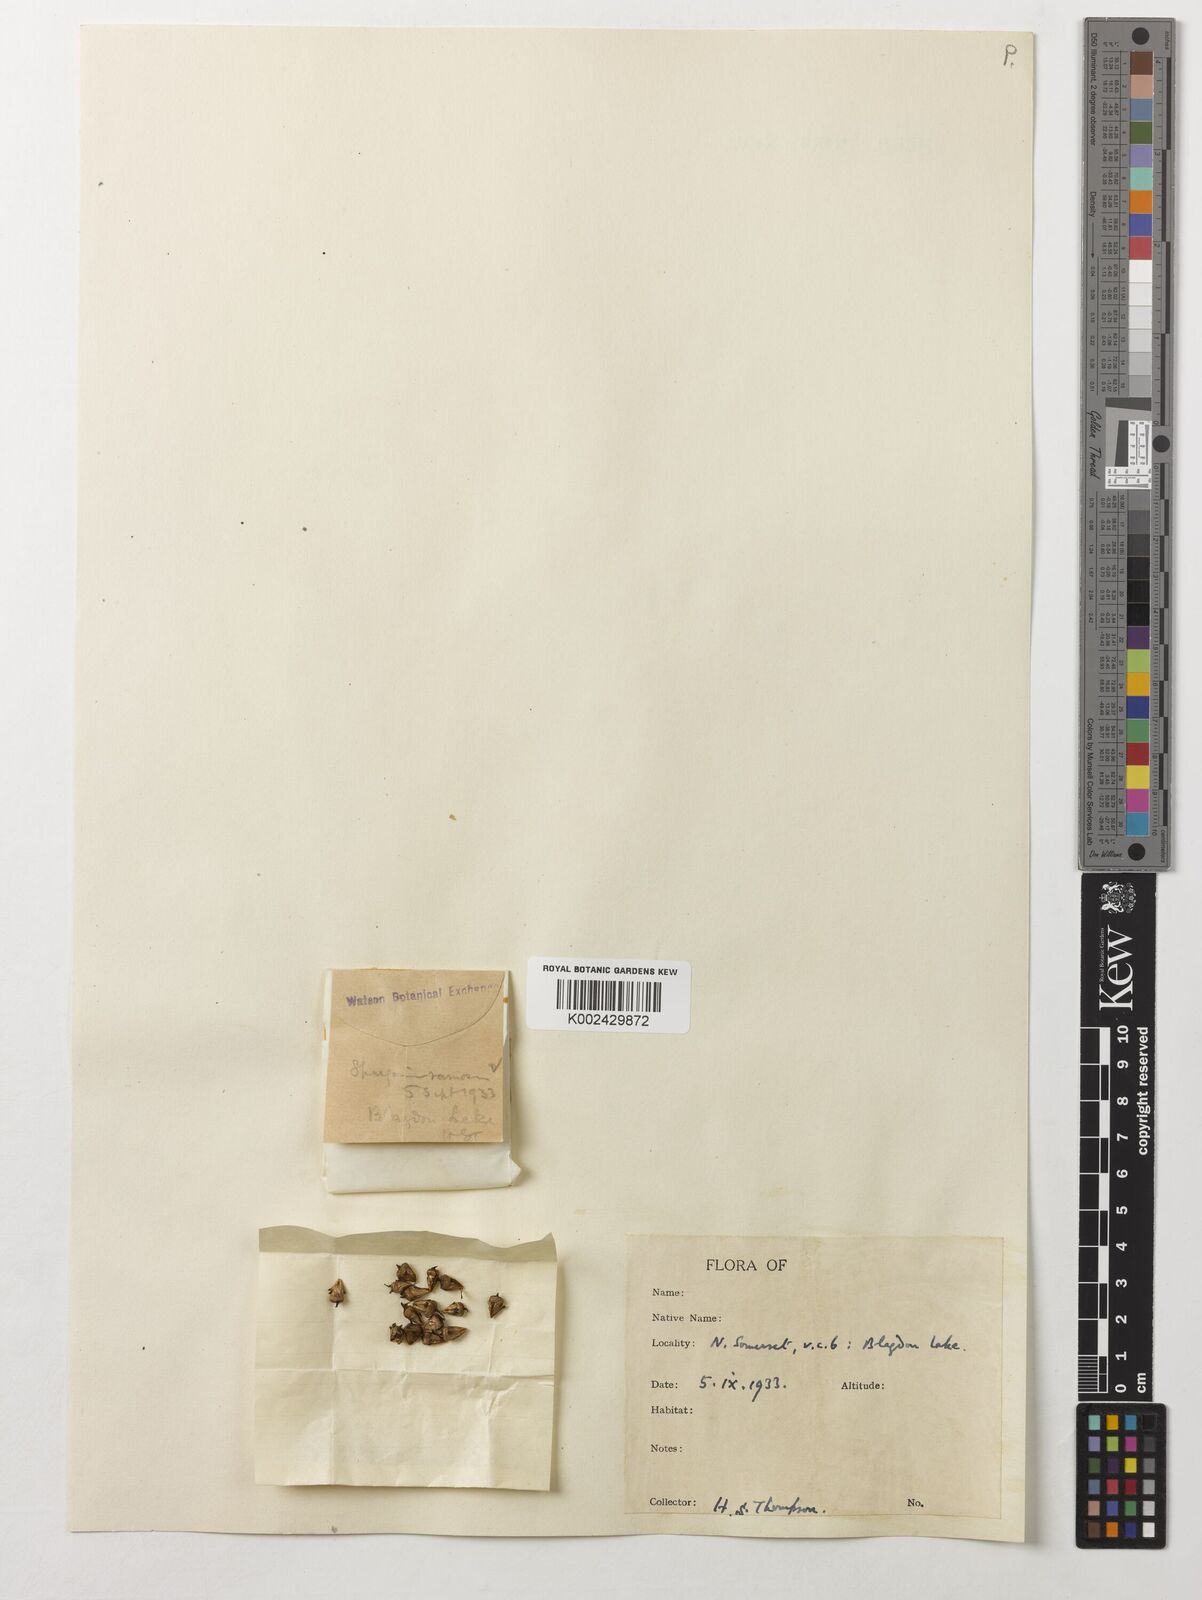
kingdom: Plantae
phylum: Tracheophyta
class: Liliopsida
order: Poales
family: Typhaceae
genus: Sparganium
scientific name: Sparganium erectum
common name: Branched bur-reed
